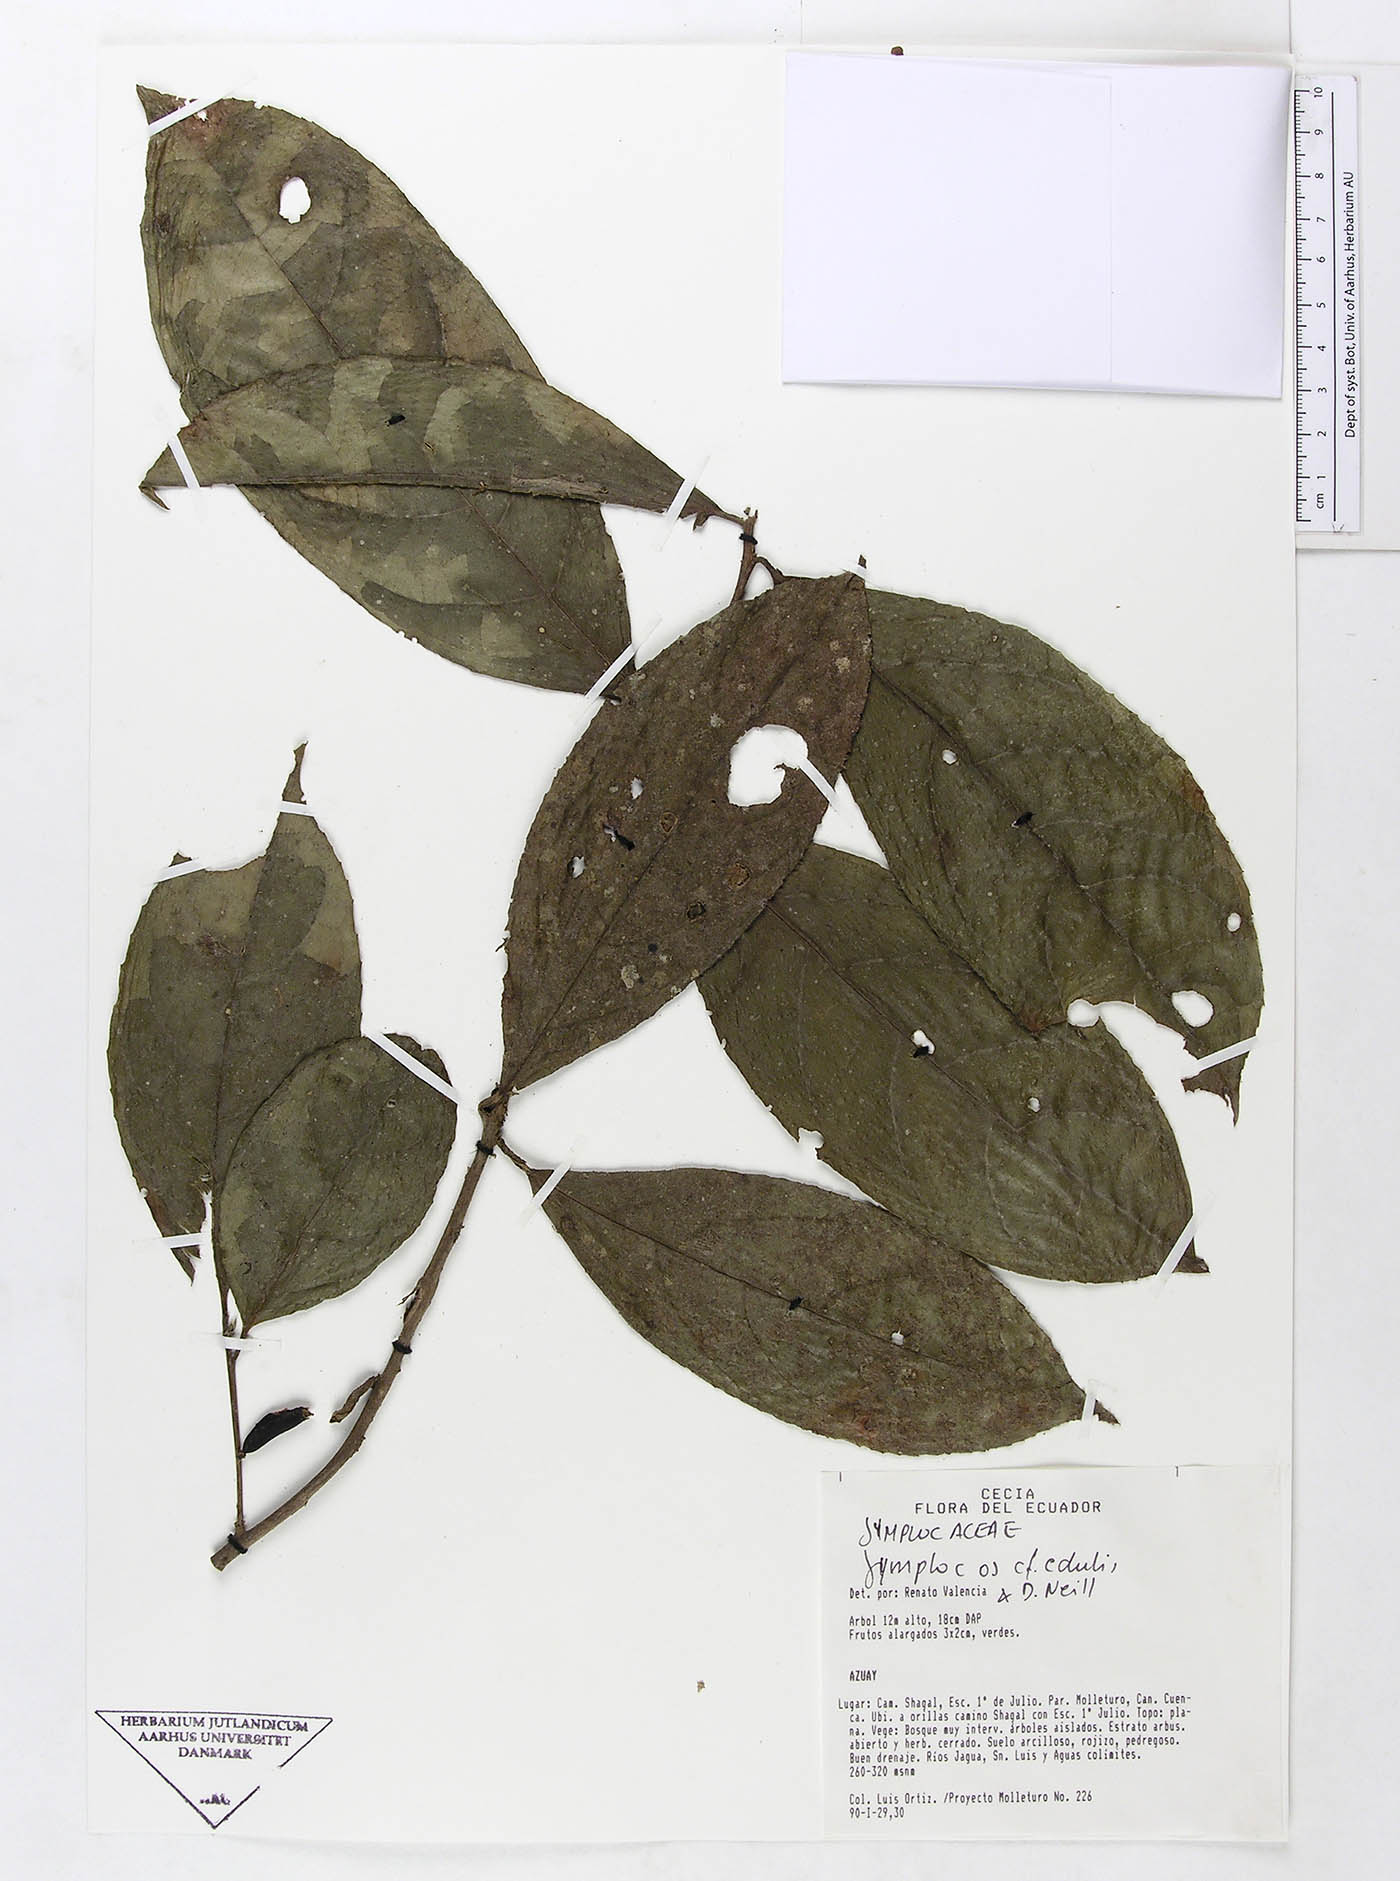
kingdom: Plantae
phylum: Tracheophyta
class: Magnoliopsida
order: Ericales
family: Symplocaceae
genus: Symplocos
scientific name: Symplocos ecuadorensis
